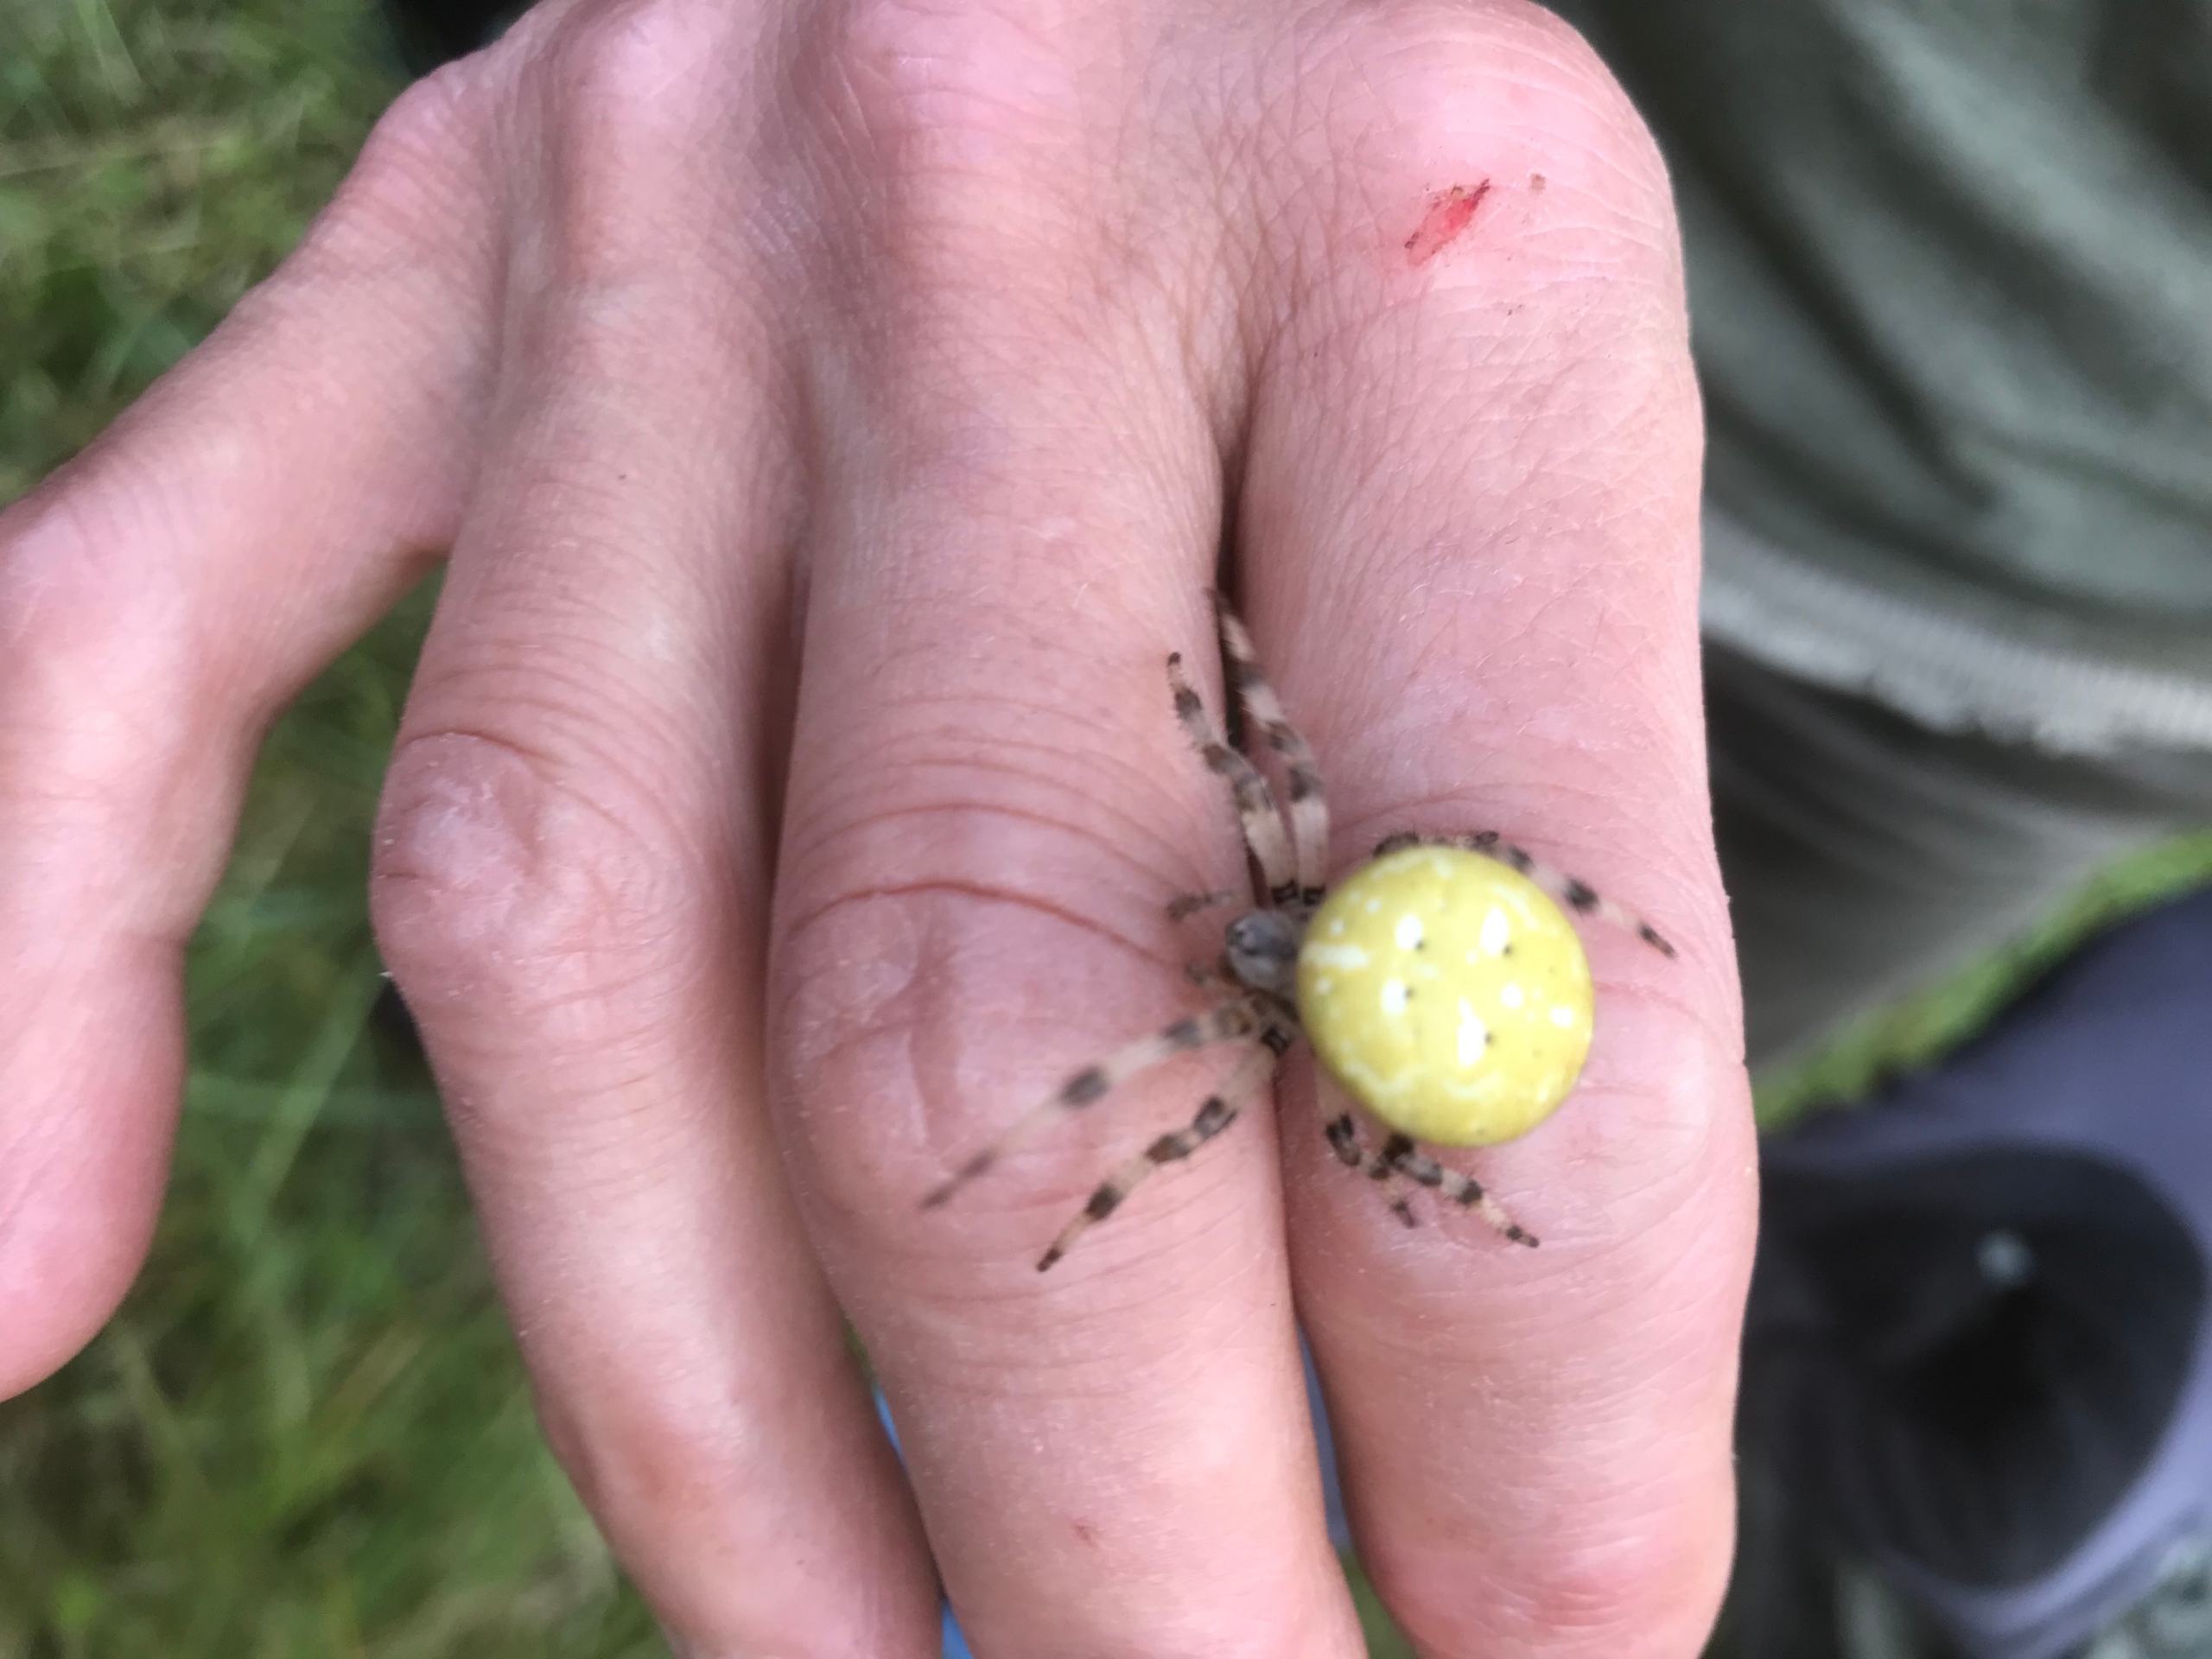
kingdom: Animalia
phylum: Arthropoda
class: Arachnida
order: Araneae
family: Araneidae
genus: Araneus
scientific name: Araneus quadratus
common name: Kvadratedderkop
